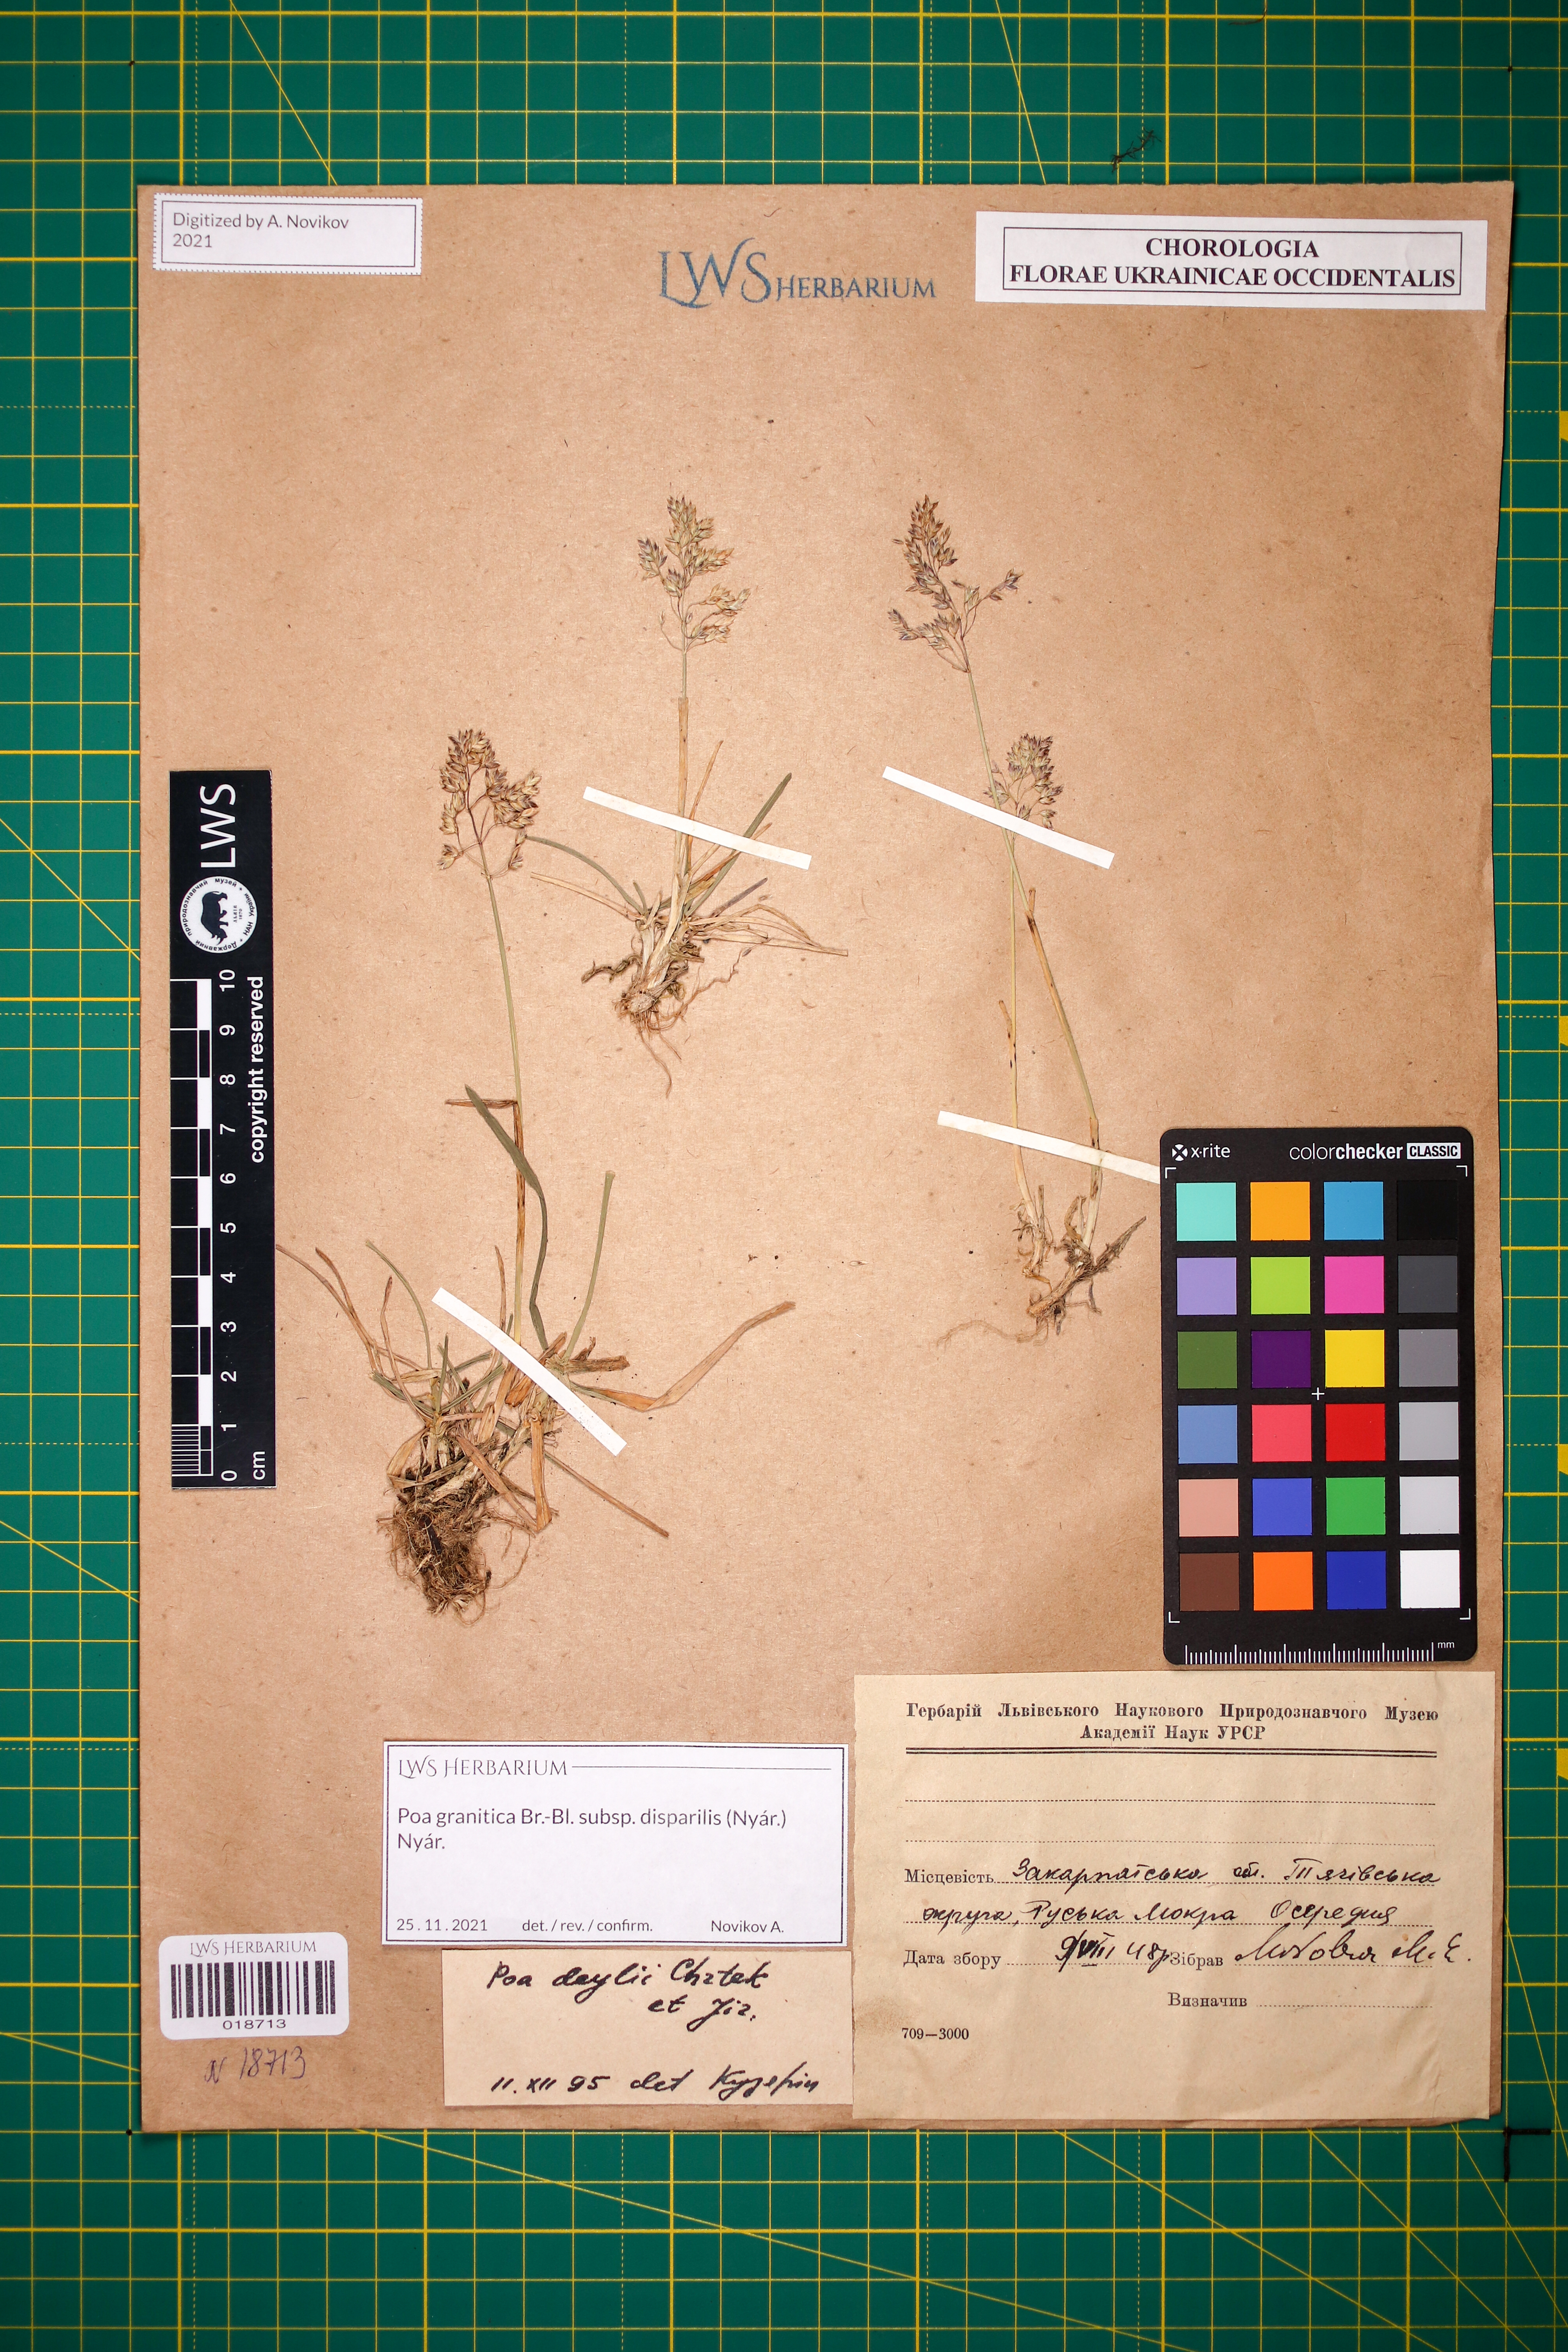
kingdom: Plantae
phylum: Tracheophyta
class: Liliopsida
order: Poales
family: Poaceae
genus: Poa
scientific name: Poa granitica
